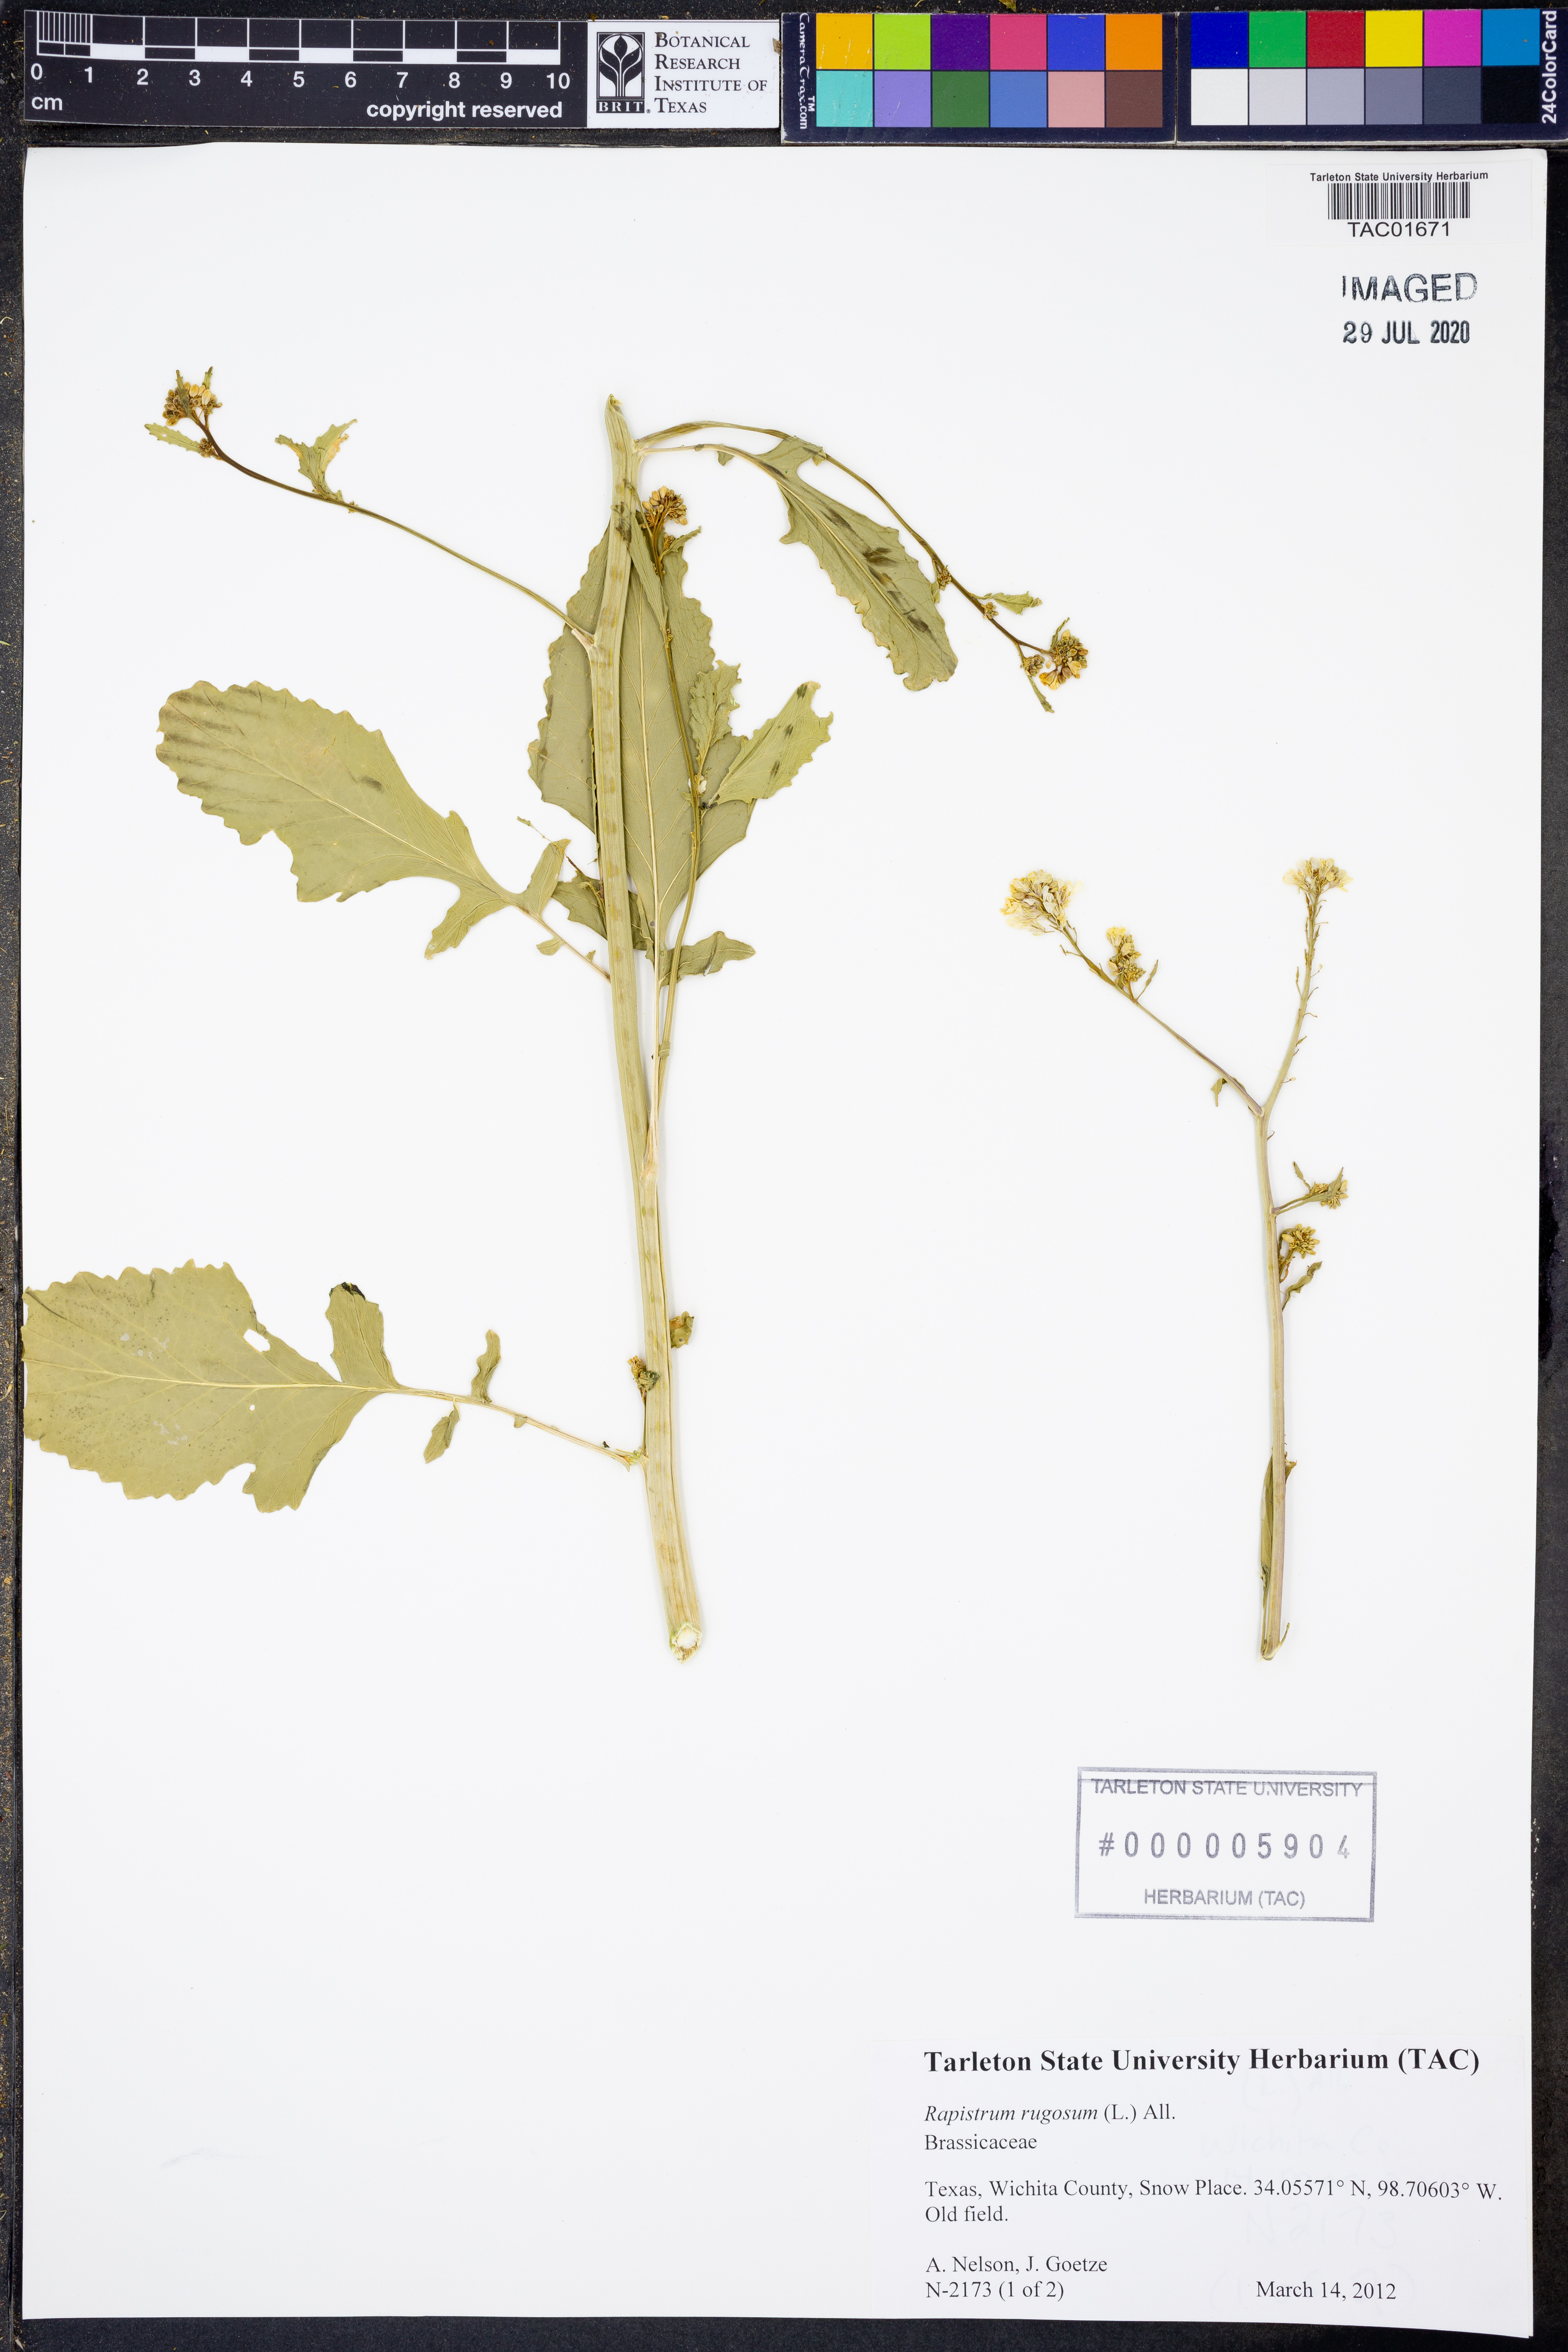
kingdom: Plantae
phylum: Tracheophyta
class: Magnoliopsida
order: Brassicales
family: Brassicaceae
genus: Rapistrum
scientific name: Rapistrum rugosum
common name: Annual bastardcabbage
